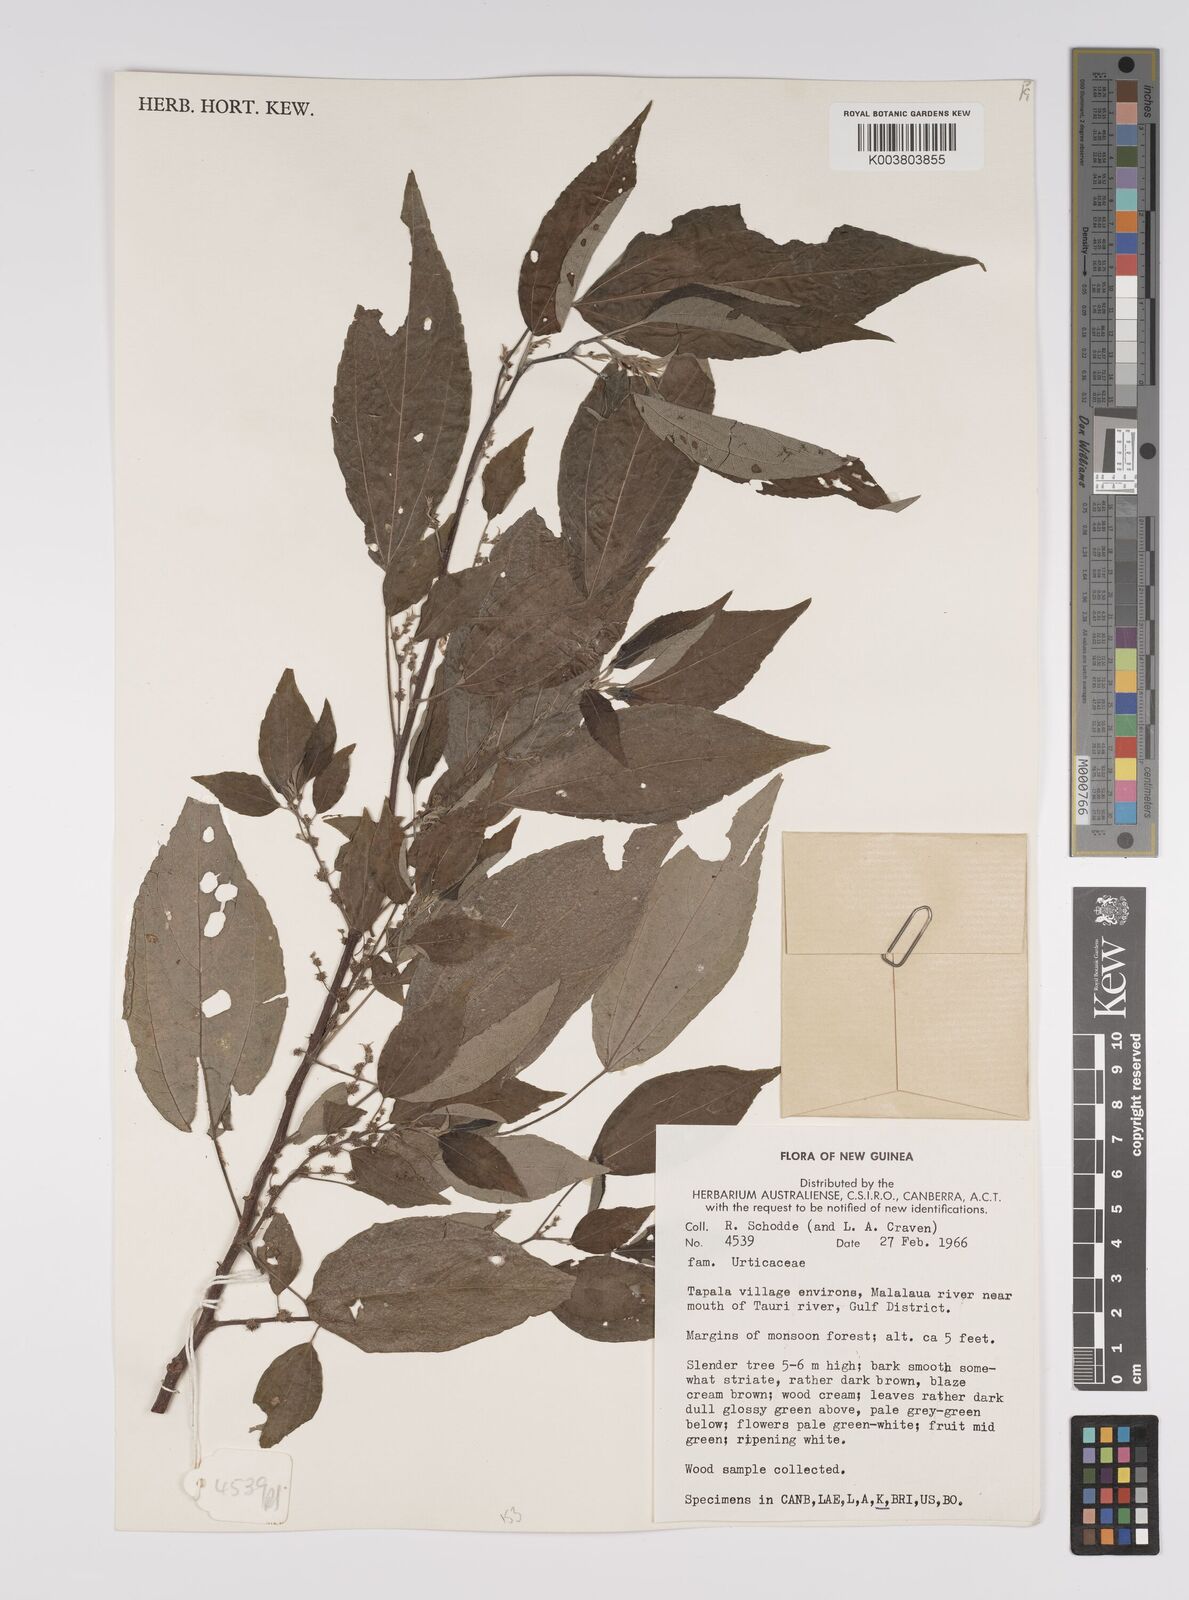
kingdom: Plantae
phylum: Tracheophyta
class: Magnoliopsida
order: Rosales
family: Urticaceae
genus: Pipturus
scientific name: Pipturus argenteus
